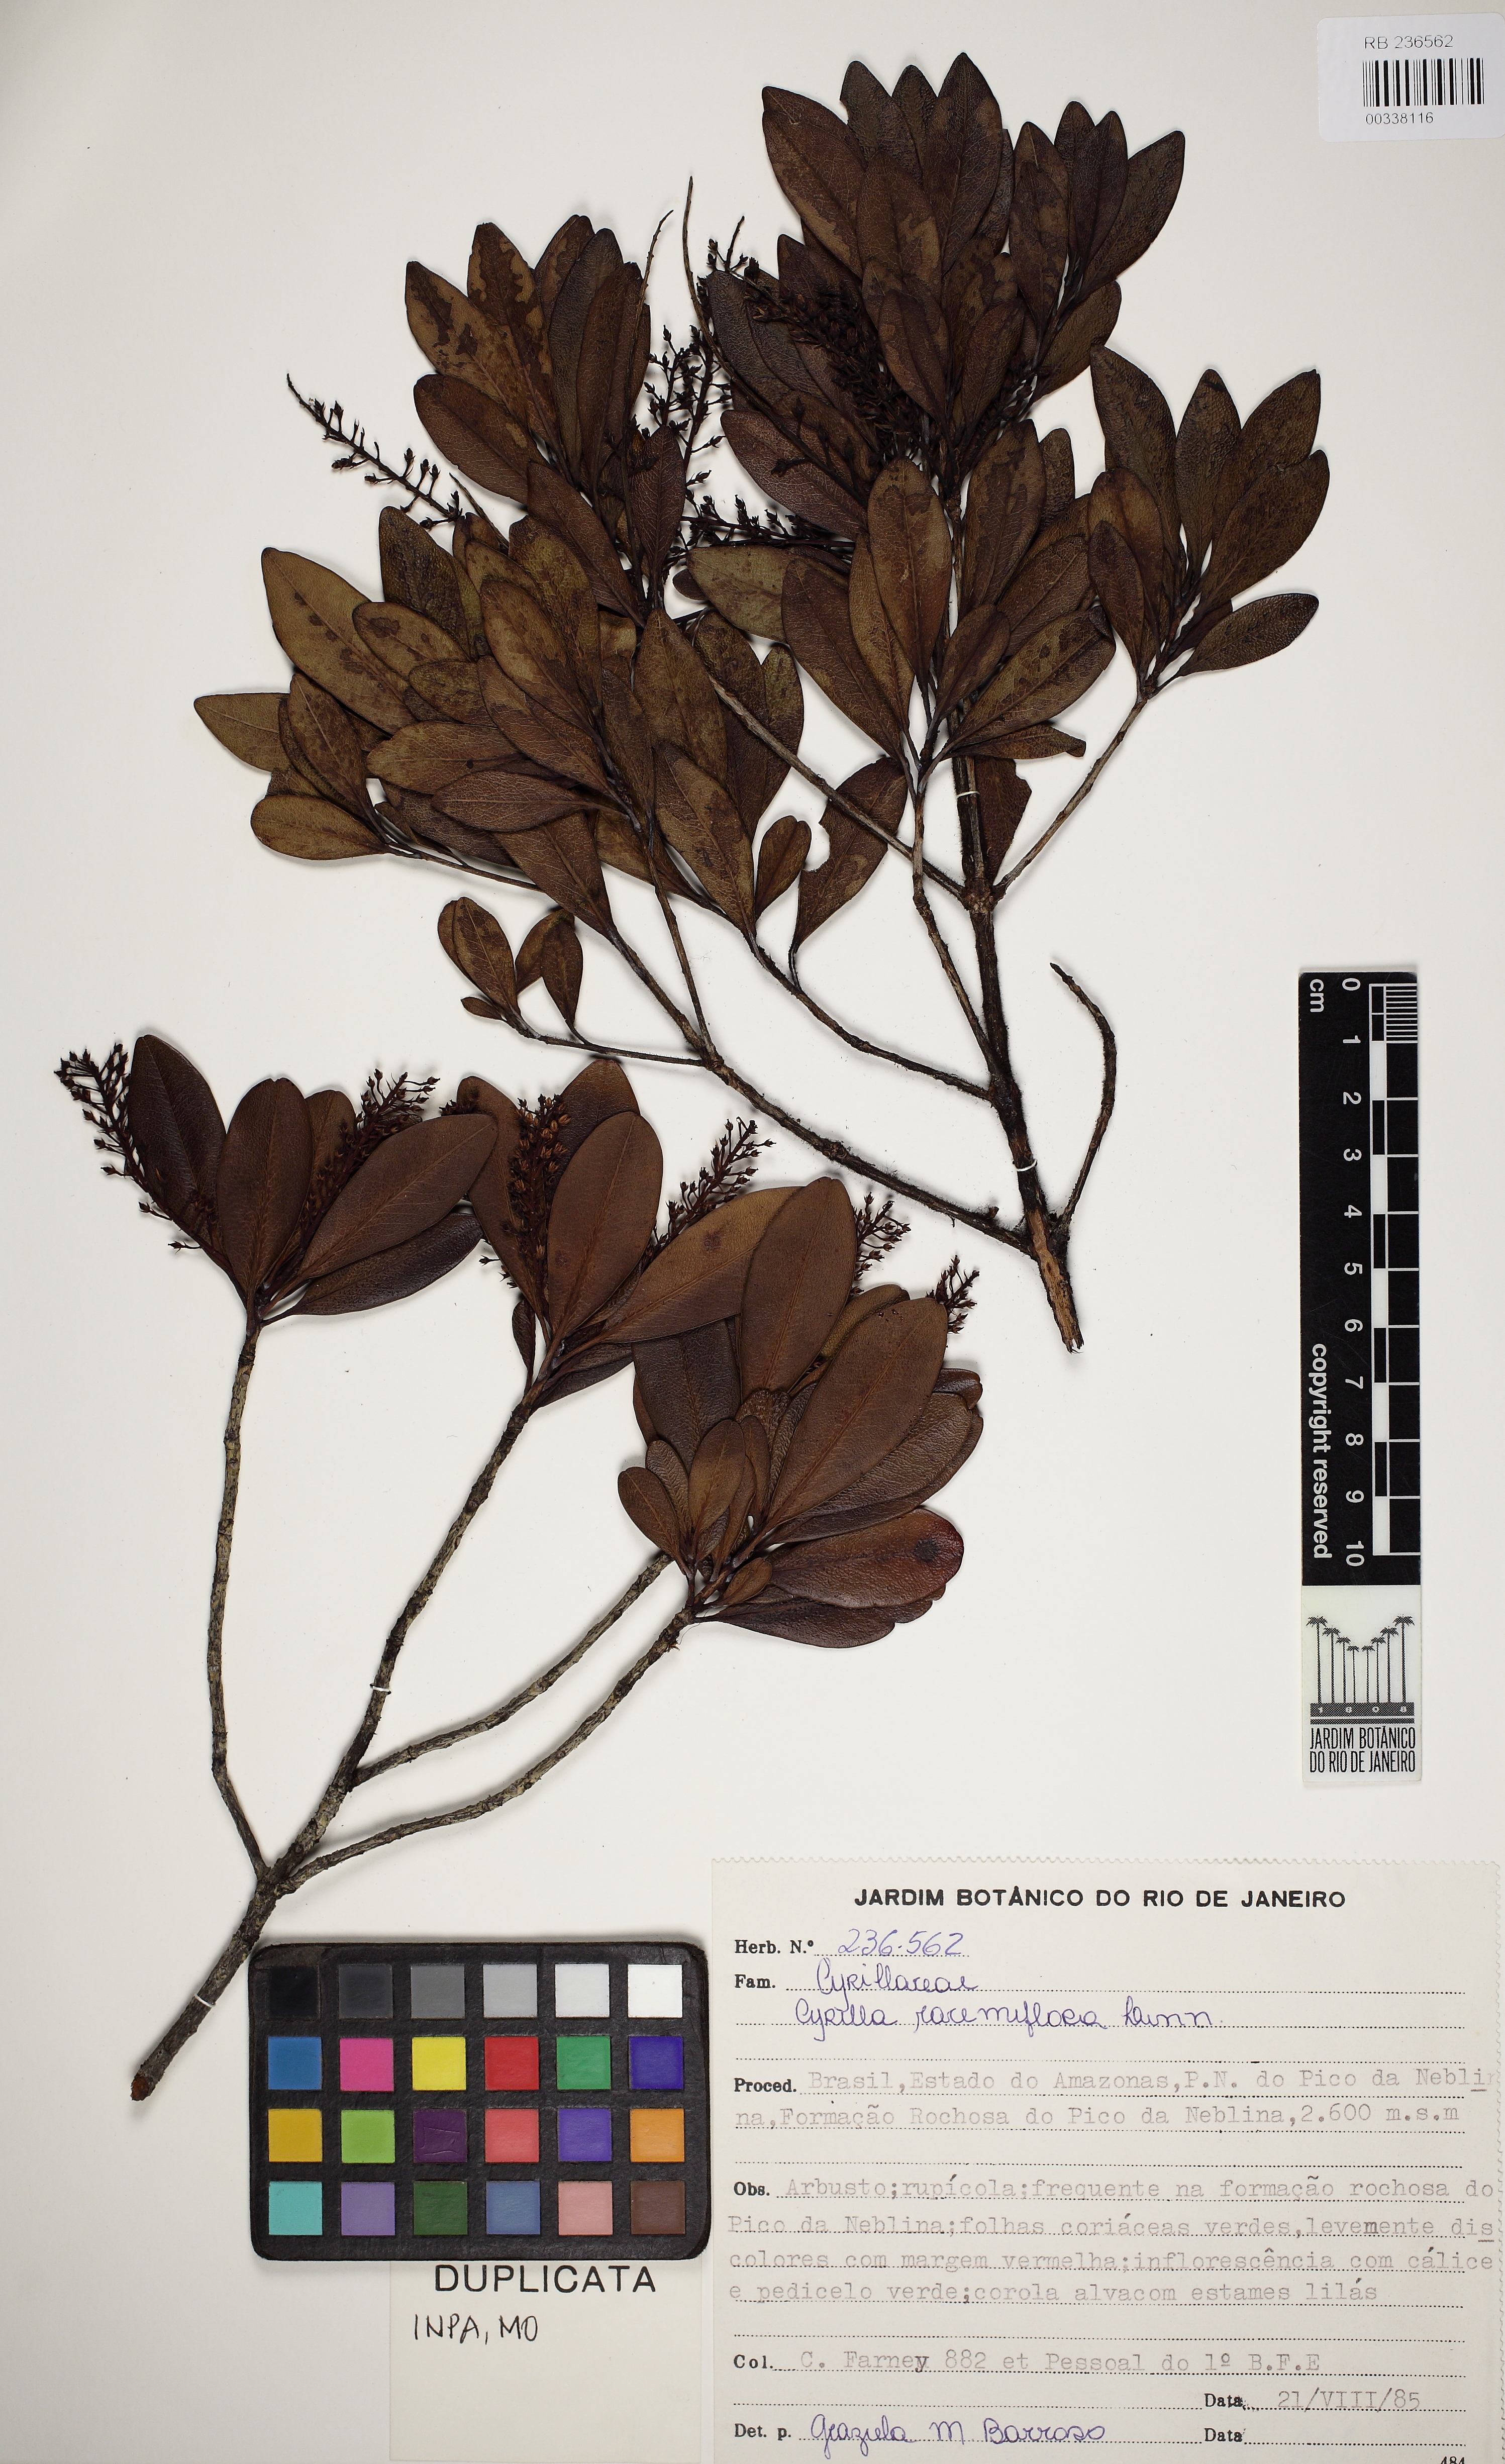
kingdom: Plantae
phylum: Tracheophyta
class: Magnoliopsida
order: Ericales
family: Cyrillaceae
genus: Cyrilla
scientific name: Cyrilla racemiflora
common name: Black titi
